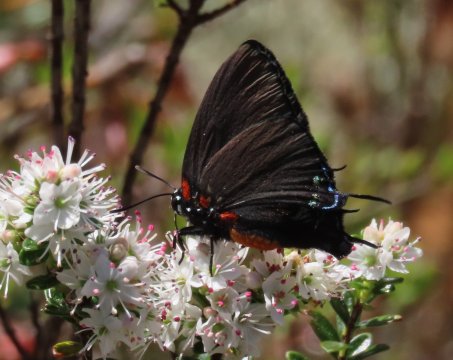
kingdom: Animalia
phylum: Arthropoda
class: Insecta
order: Lepidoptera
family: Lycaenidae
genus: Atlides
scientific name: Atlides halesus
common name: Great Purple Hairstreak
